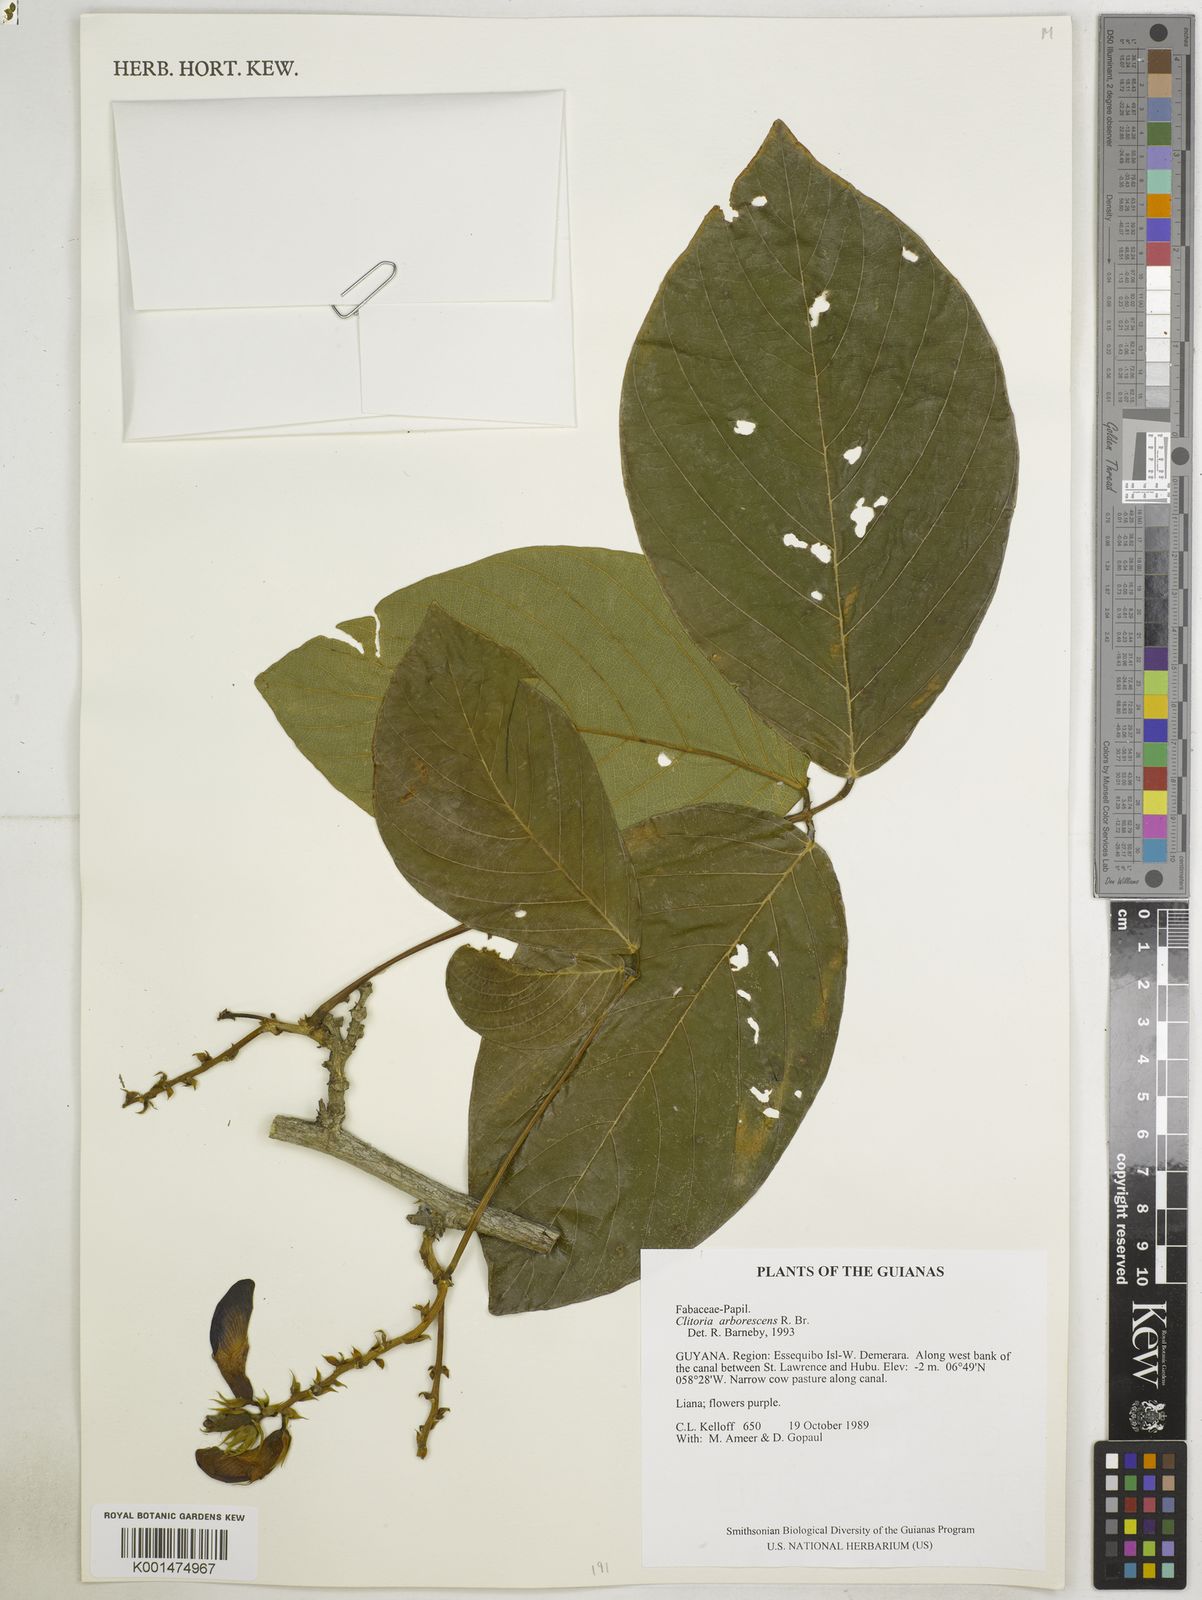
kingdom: Plantae
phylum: Tracheophyta
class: Magnoliopsida
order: Fabales
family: Fabaceae
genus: Clitoria
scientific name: Clitoria arborescens
